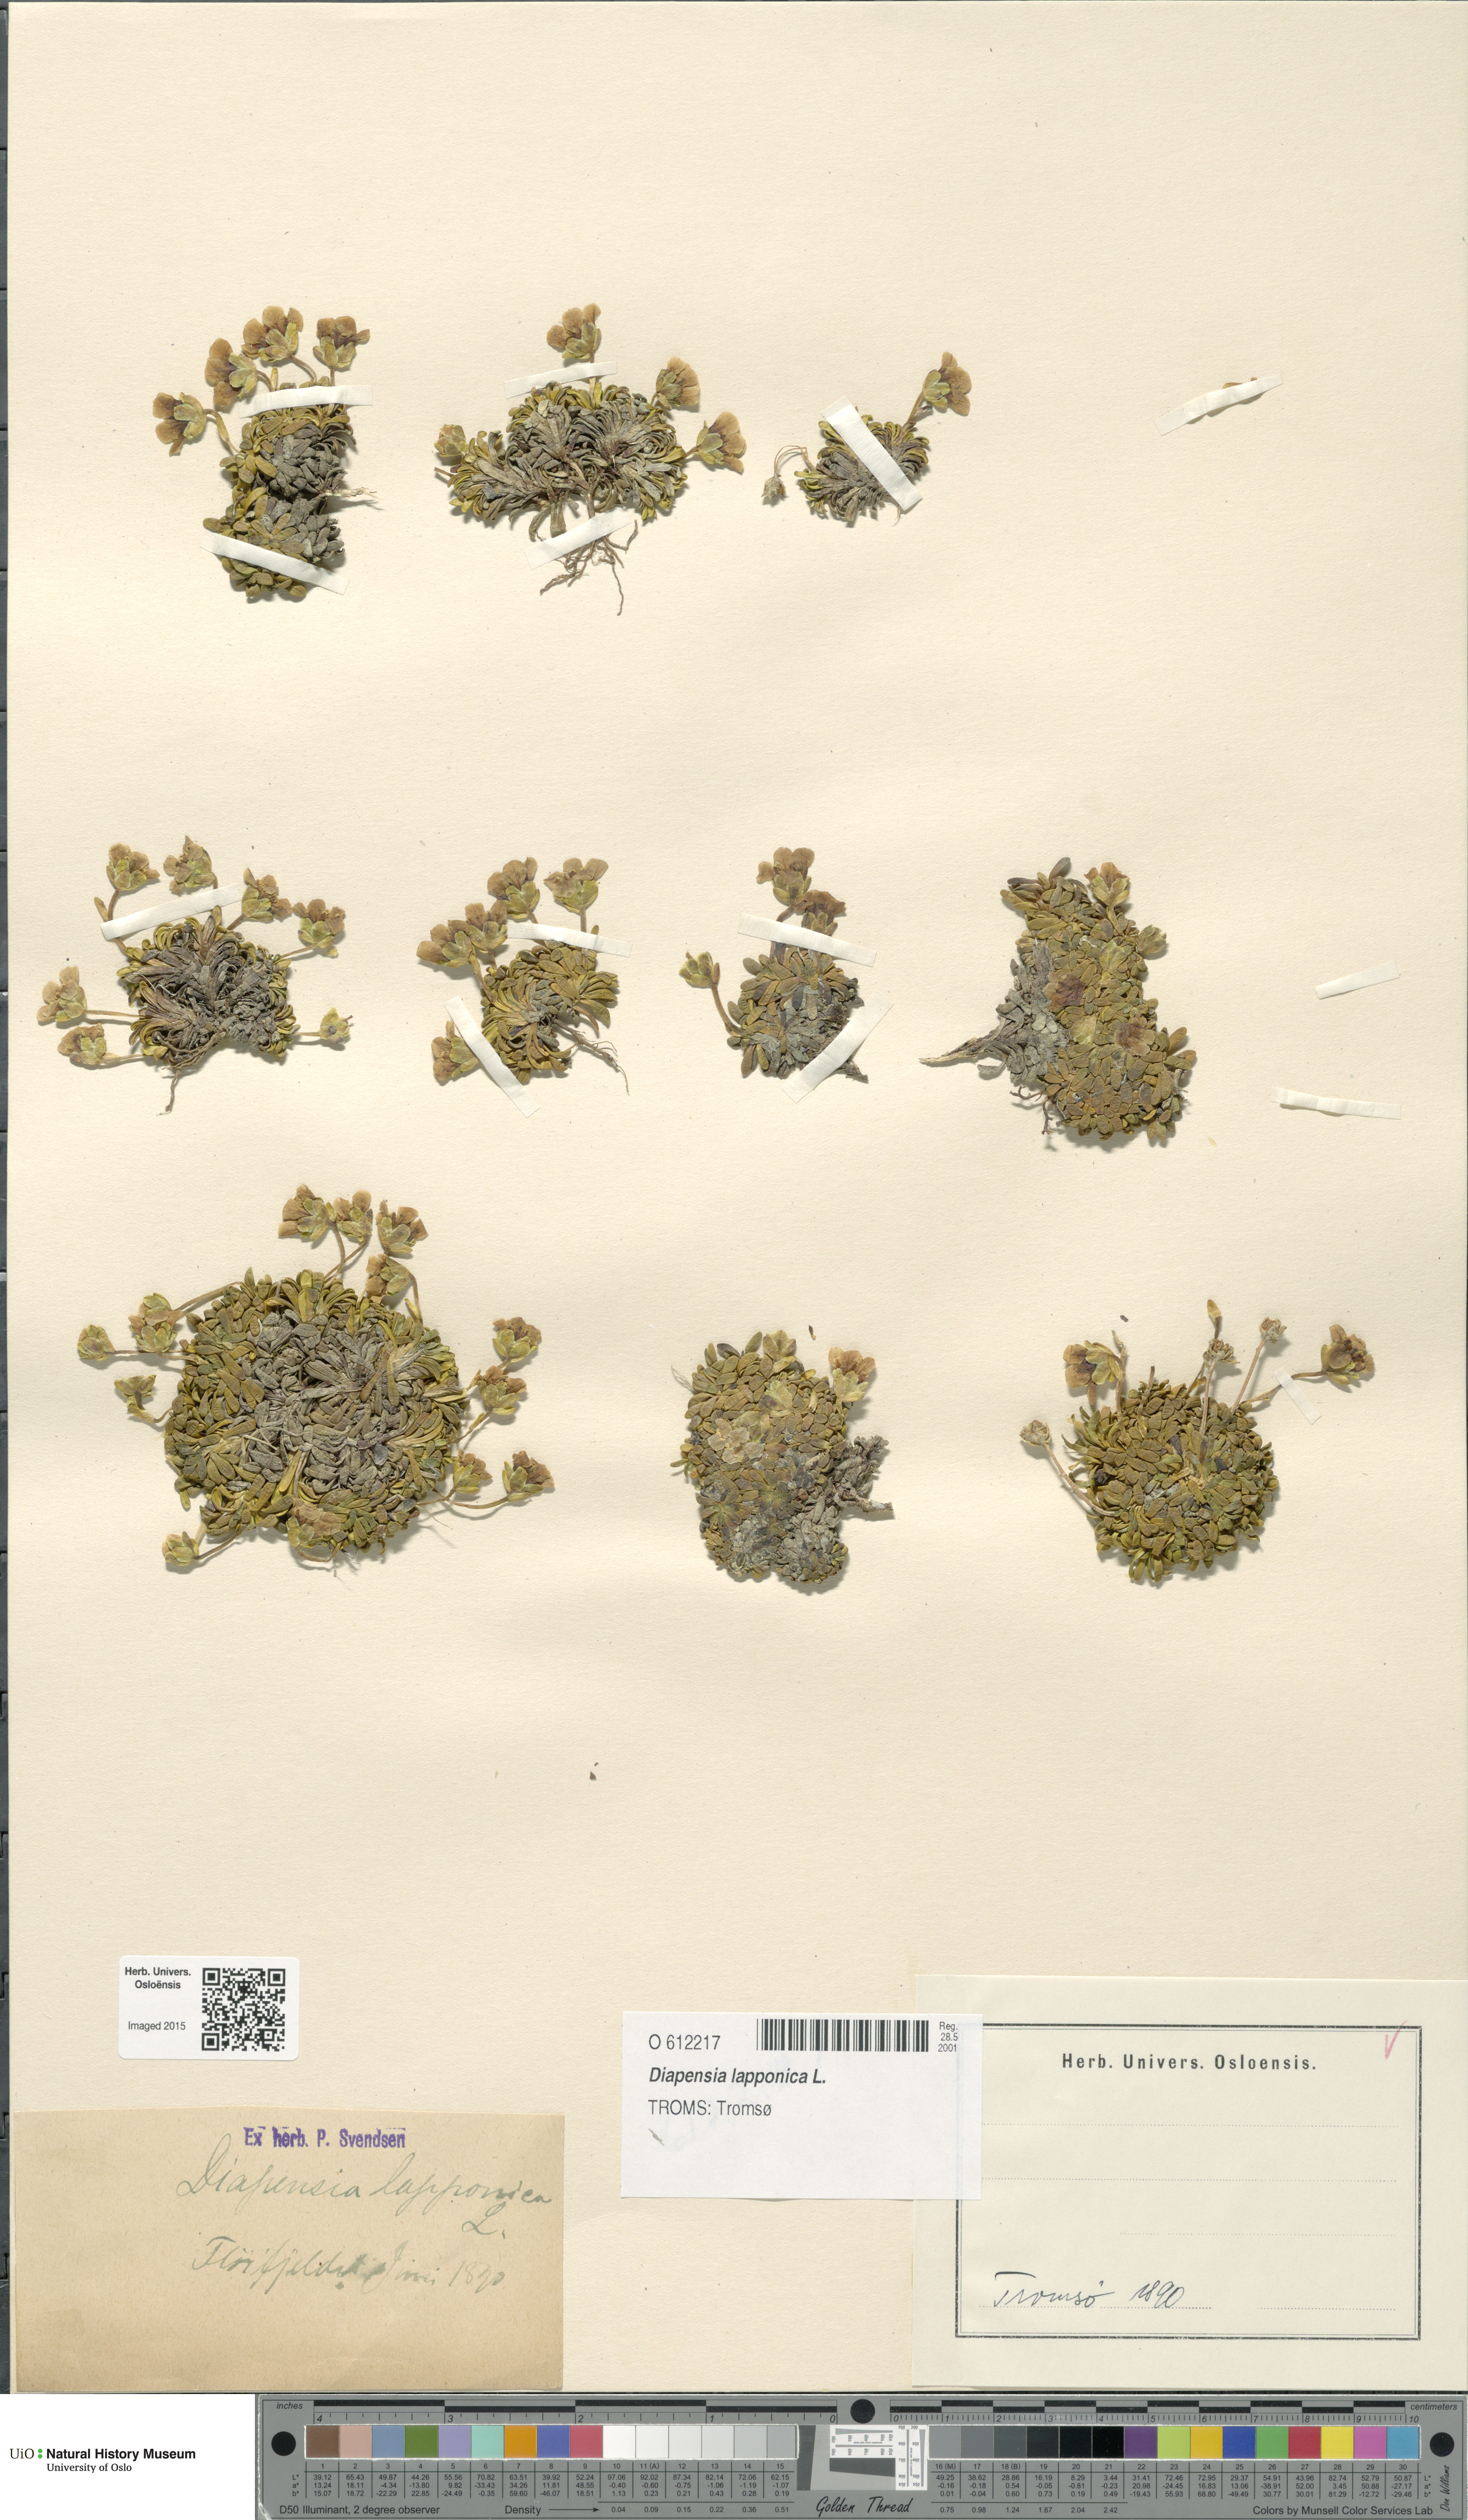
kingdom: Plantae
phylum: Tracheophyta
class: Magnoliopsida
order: Ericales
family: Diapensiaceae
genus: Diapensia
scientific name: Diapensia lapponica
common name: Diapensia
